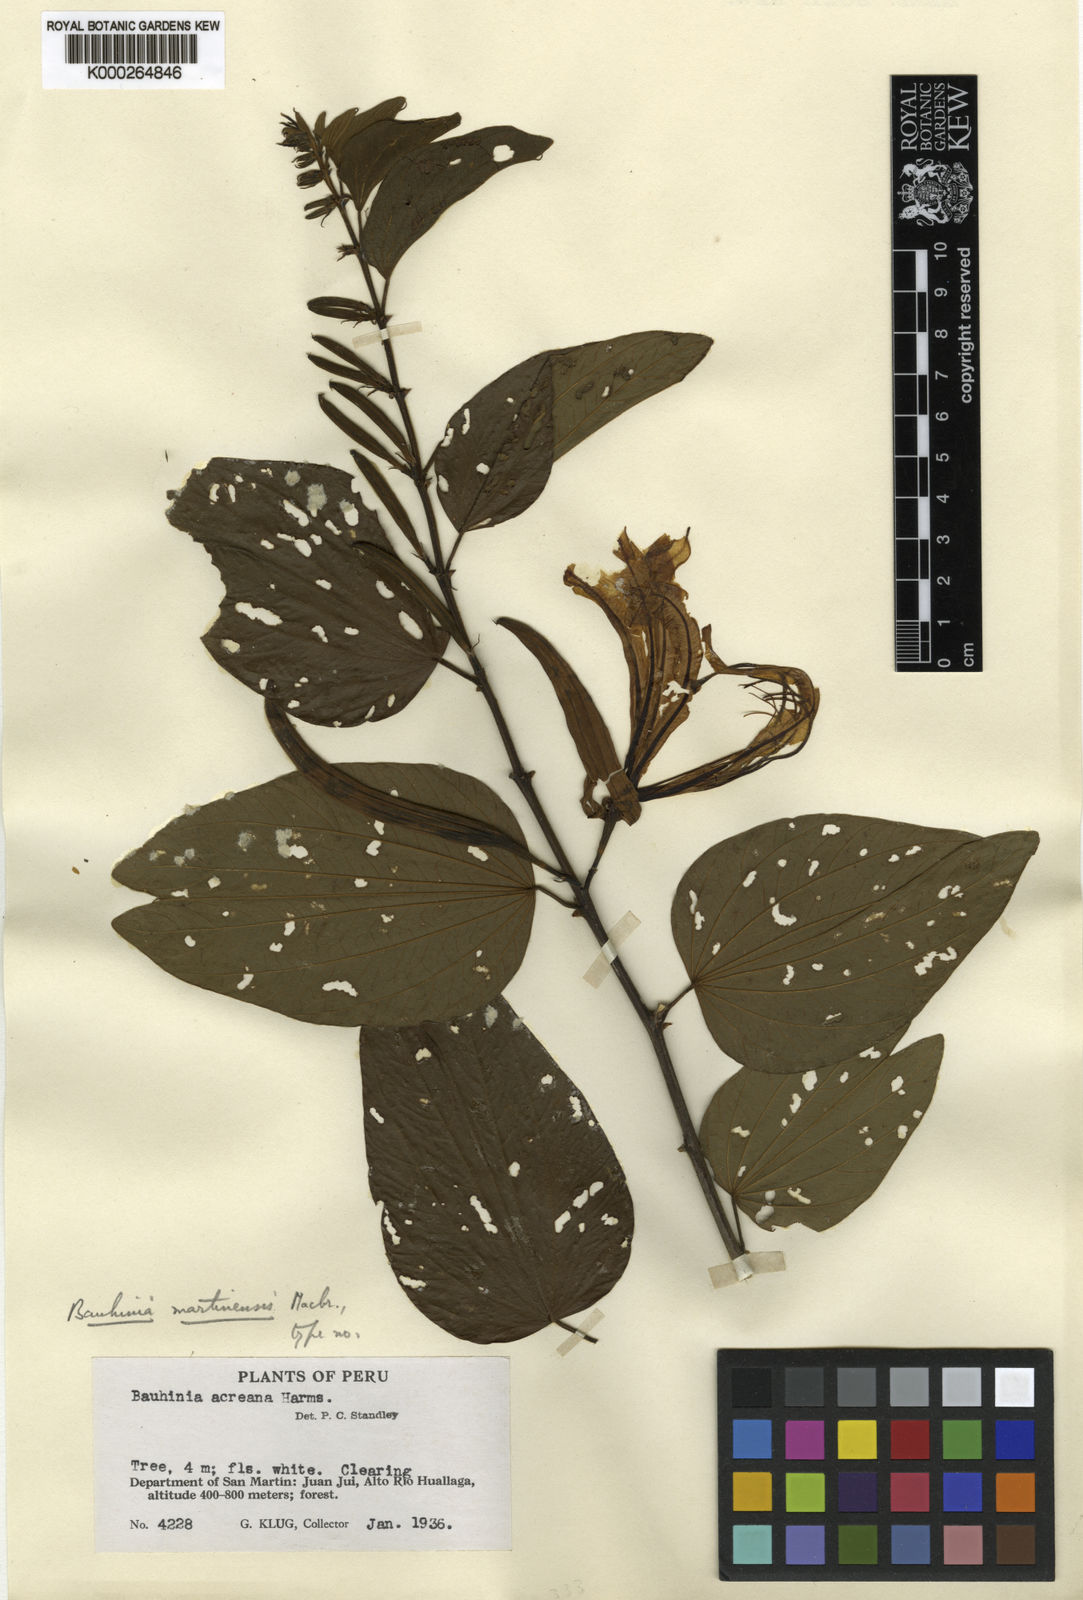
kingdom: Plantae
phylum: Tracheophyta
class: Magnoliopsida
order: Fabales
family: Fabaceae
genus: Bauhinia
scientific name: Bauhinia
